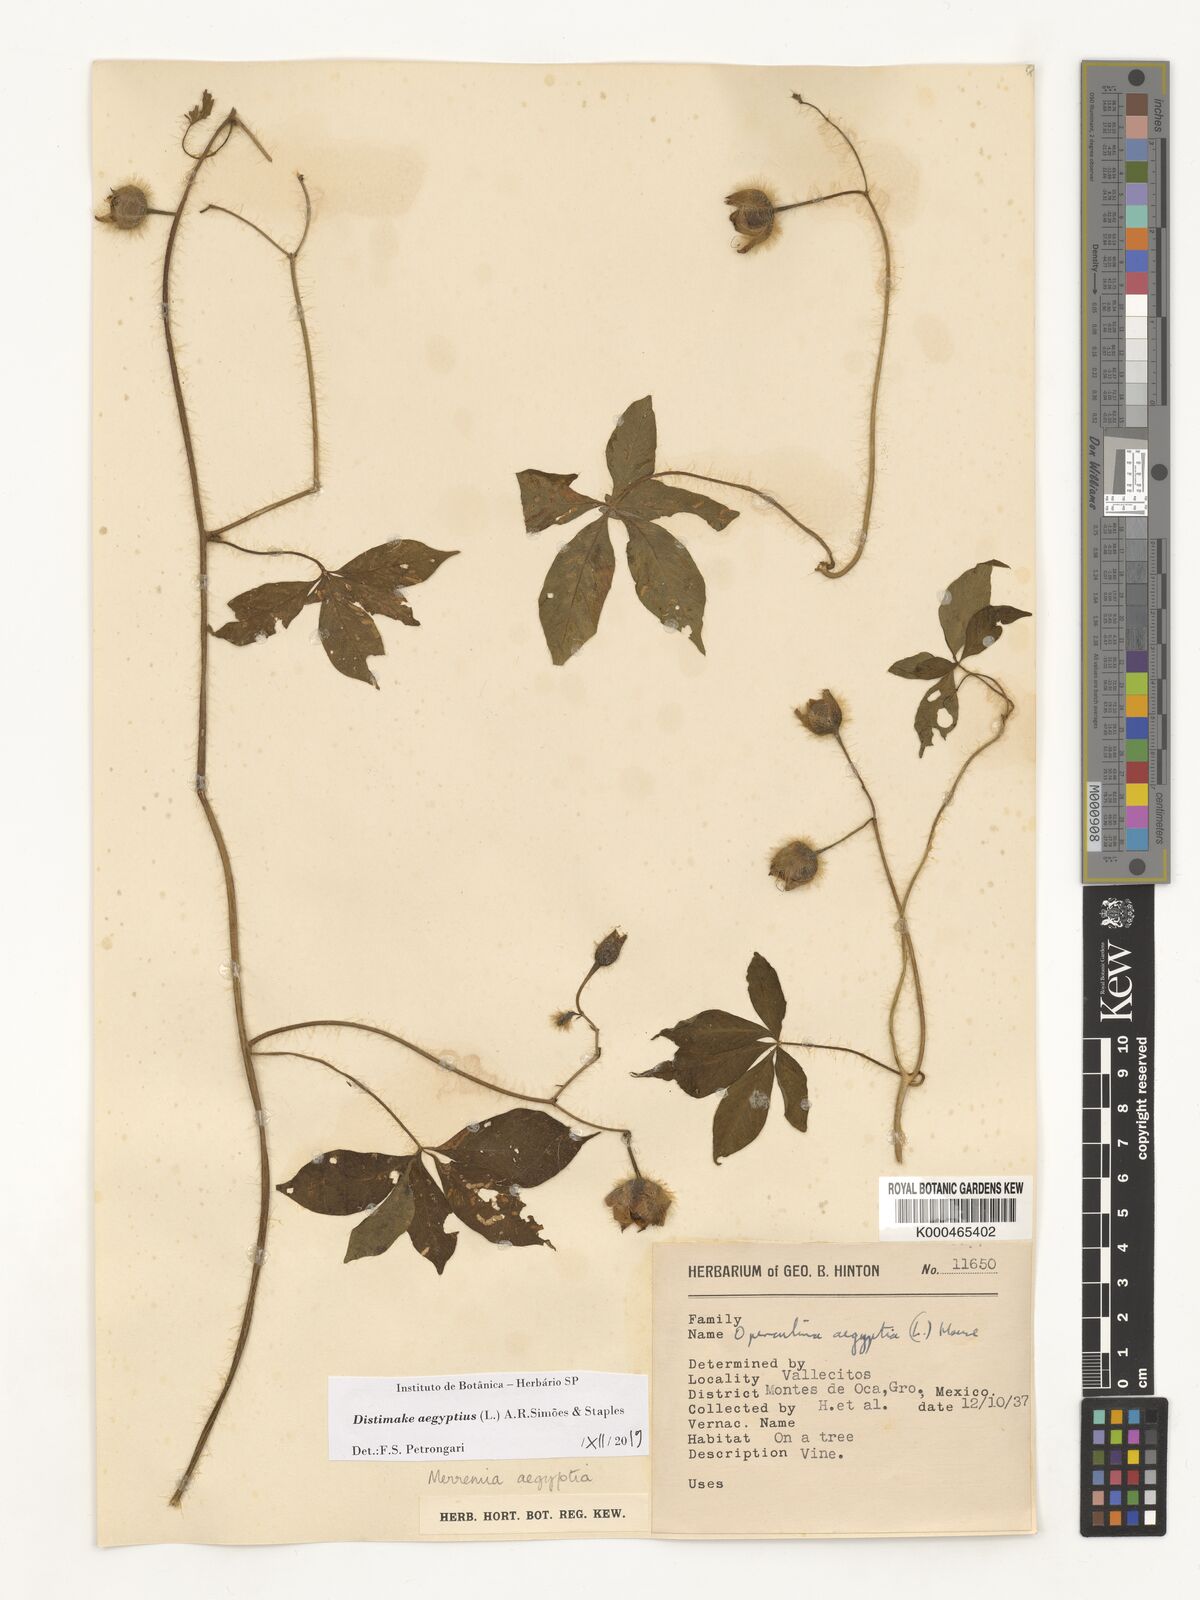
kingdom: Plantae
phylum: Tracheophyta
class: Magnoliopsida
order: Solanales
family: Convolvulaceae
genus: Distimake
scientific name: Distimake aegyptius
